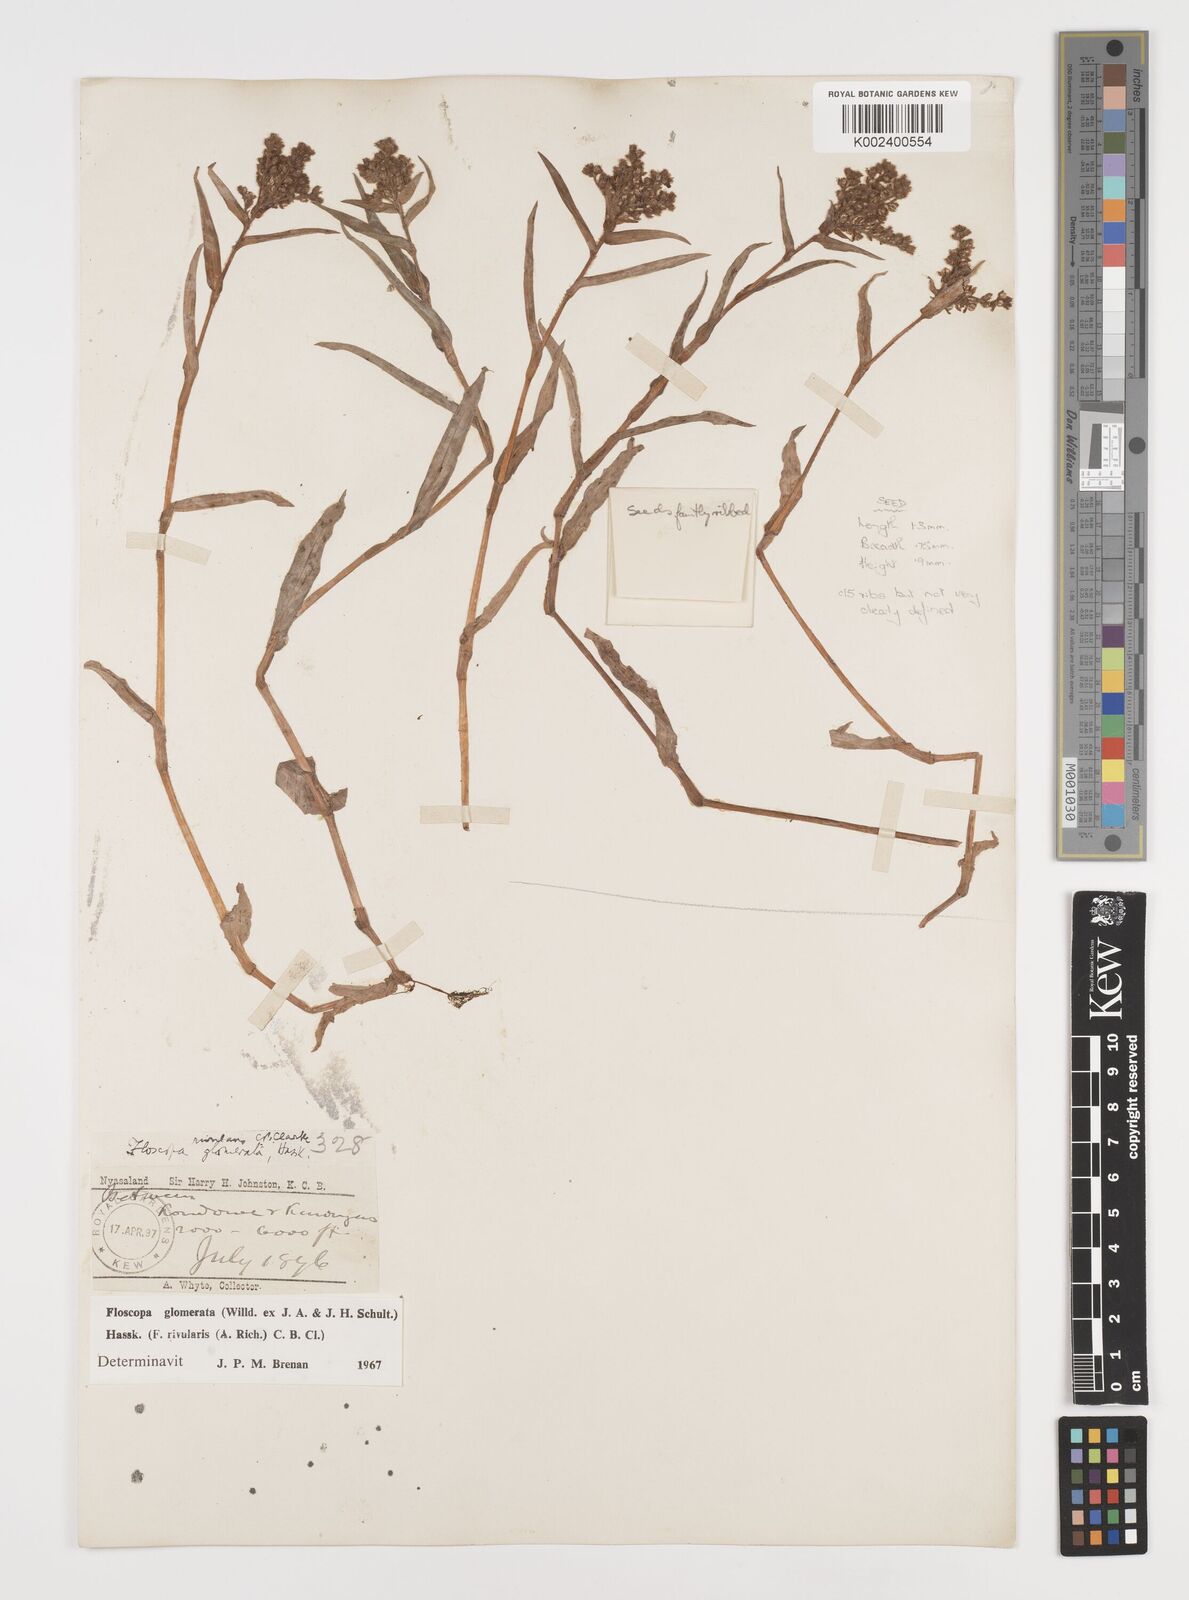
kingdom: Plantae
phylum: Tracheophyta
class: Liliopsida
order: Commelinales
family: Commelinaceae
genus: Floscopa
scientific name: Floscopa glomerata
